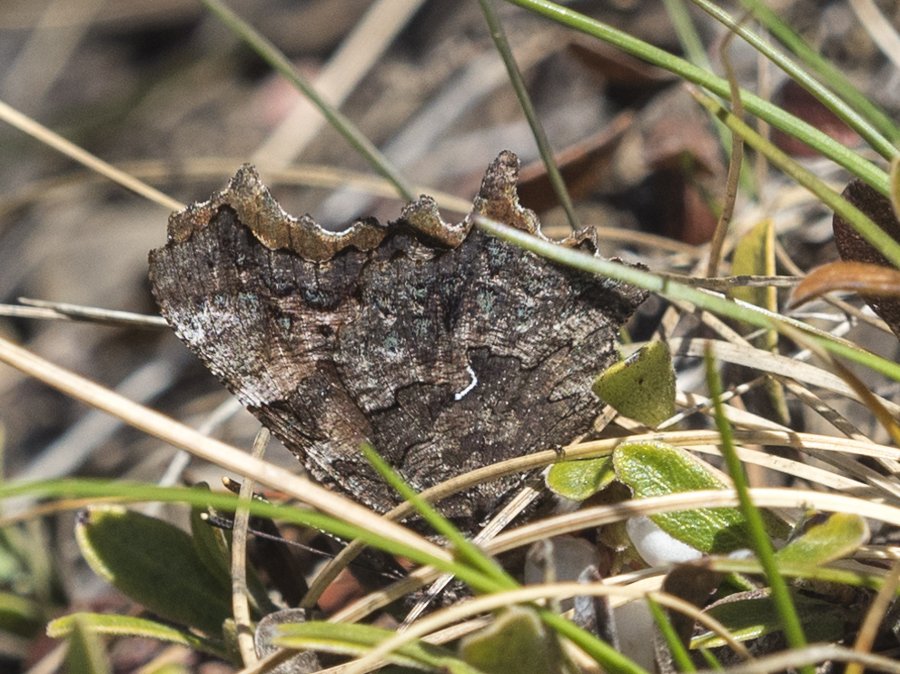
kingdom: Animalia
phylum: Arthropoda
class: Insecta
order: Lepidoptera
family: Nymphalidae
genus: Polygonia
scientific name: Polygonia faunus
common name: Green Comma
